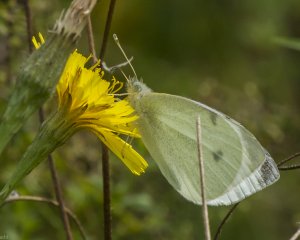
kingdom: Animalia
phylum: Arthropoda
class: Insecta
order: Lepidoptera
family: Pieridae
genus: Pieris
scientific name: Pieris rapae
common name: Cabbage White
